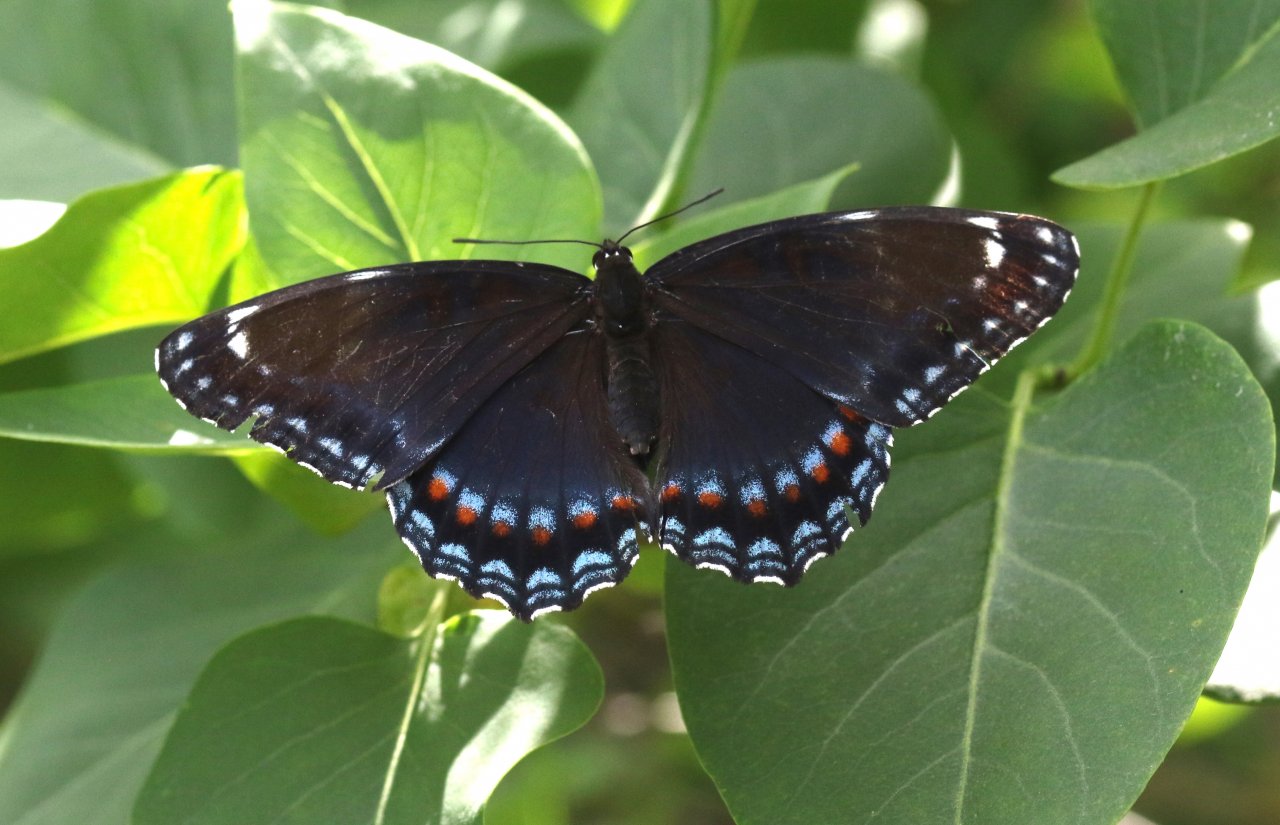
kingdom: Animalia
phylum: Arthropoda
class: Insecta
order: Lepidoptera
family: Nymphalidae
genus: Limenitis
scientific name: Limenitis astyanax
